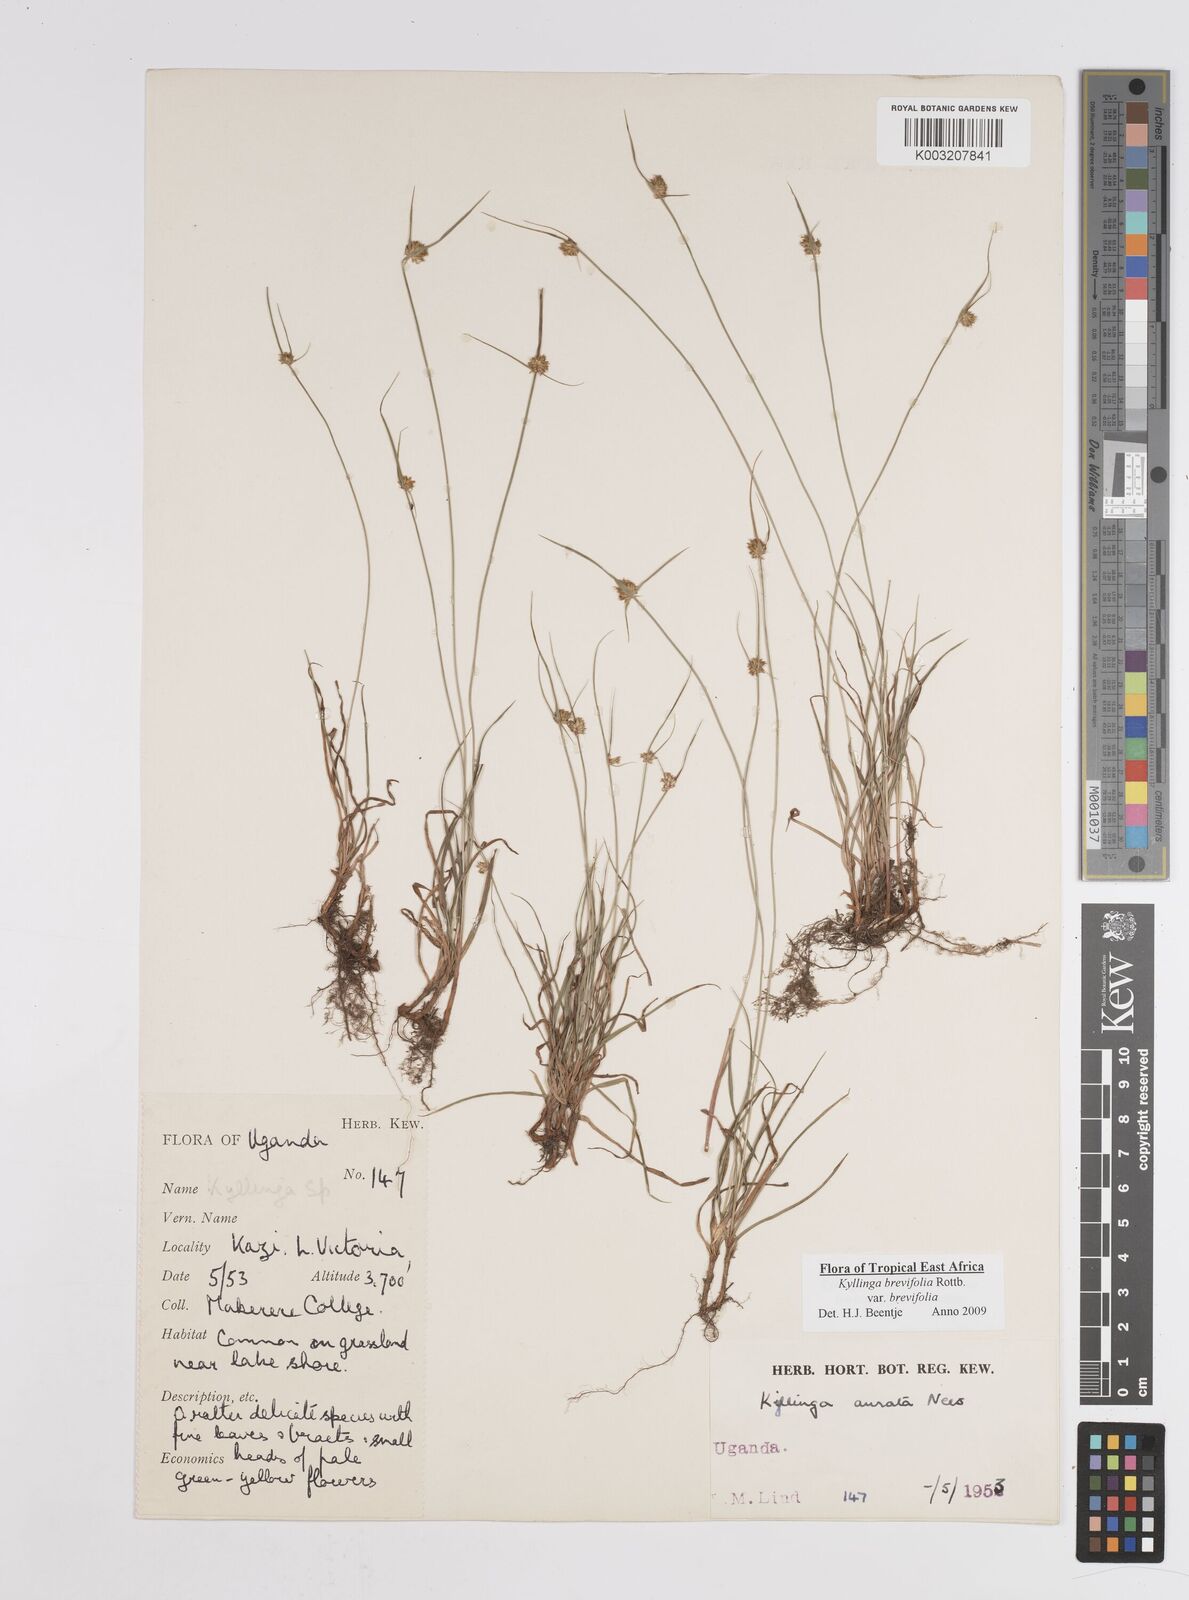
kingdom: Plantae
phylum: Tracheophyta
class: Liliopsida
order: Poales
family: Cyperaceae
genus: Cyperus
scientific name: Cyperus erectus
